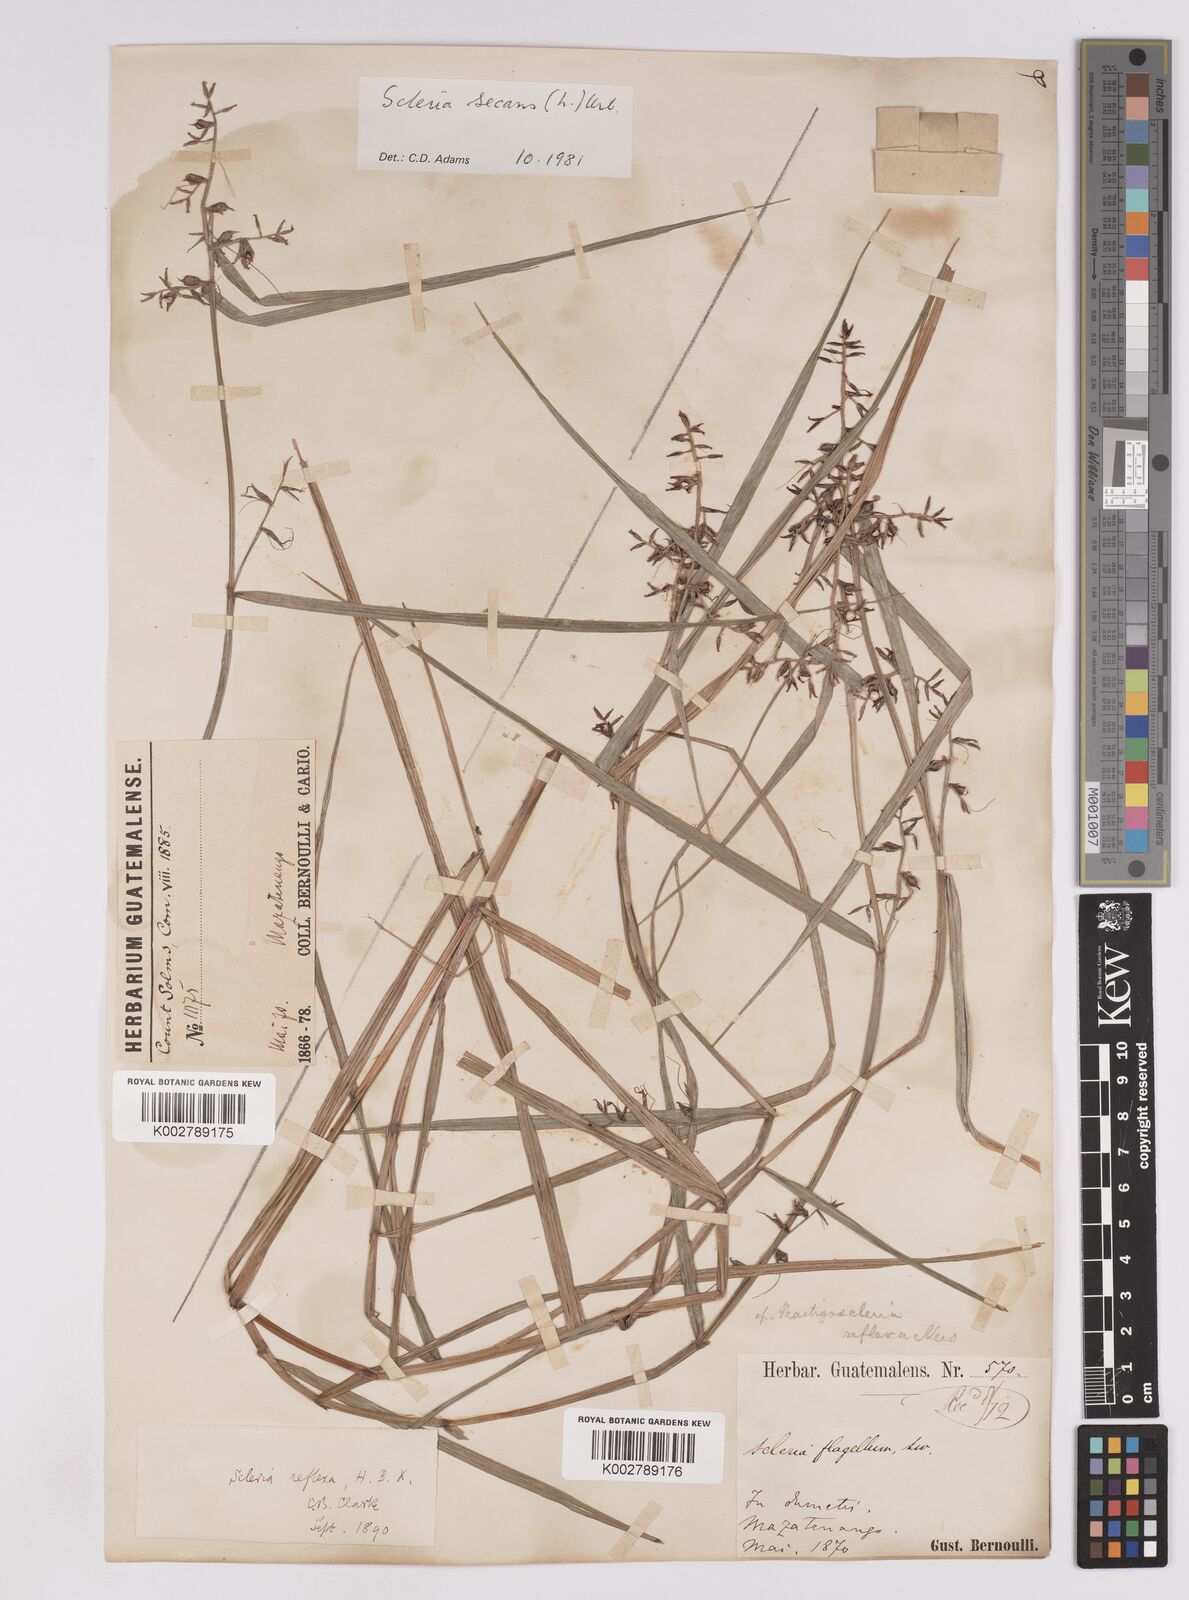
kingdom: Plantae
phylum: Tracheophyta
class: Liliopsida
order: Poales
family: Cyperaceae
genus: Scleria
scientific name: Scleria secans
